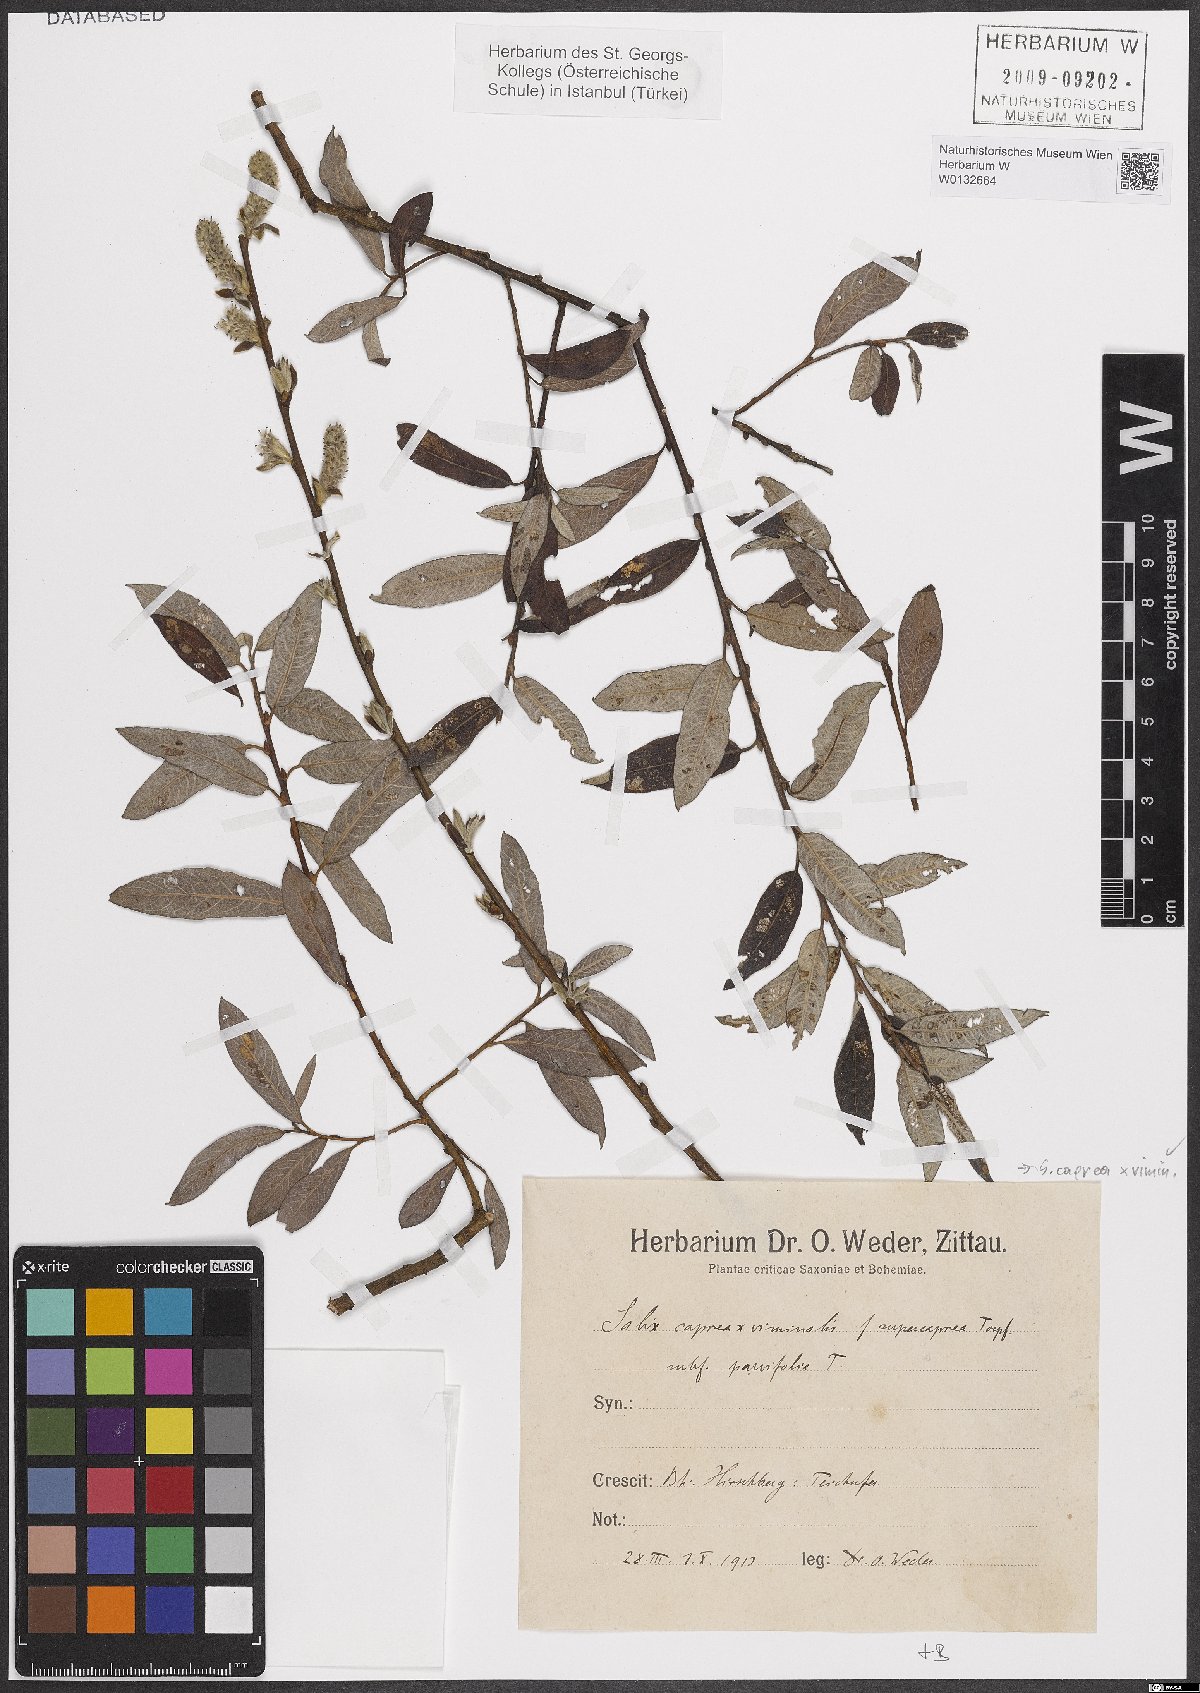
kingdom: Plantae
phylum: Tracheophyta
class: Magnoliopsida
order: Malpighiales
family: Salicaceae
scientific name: Salicaceae
